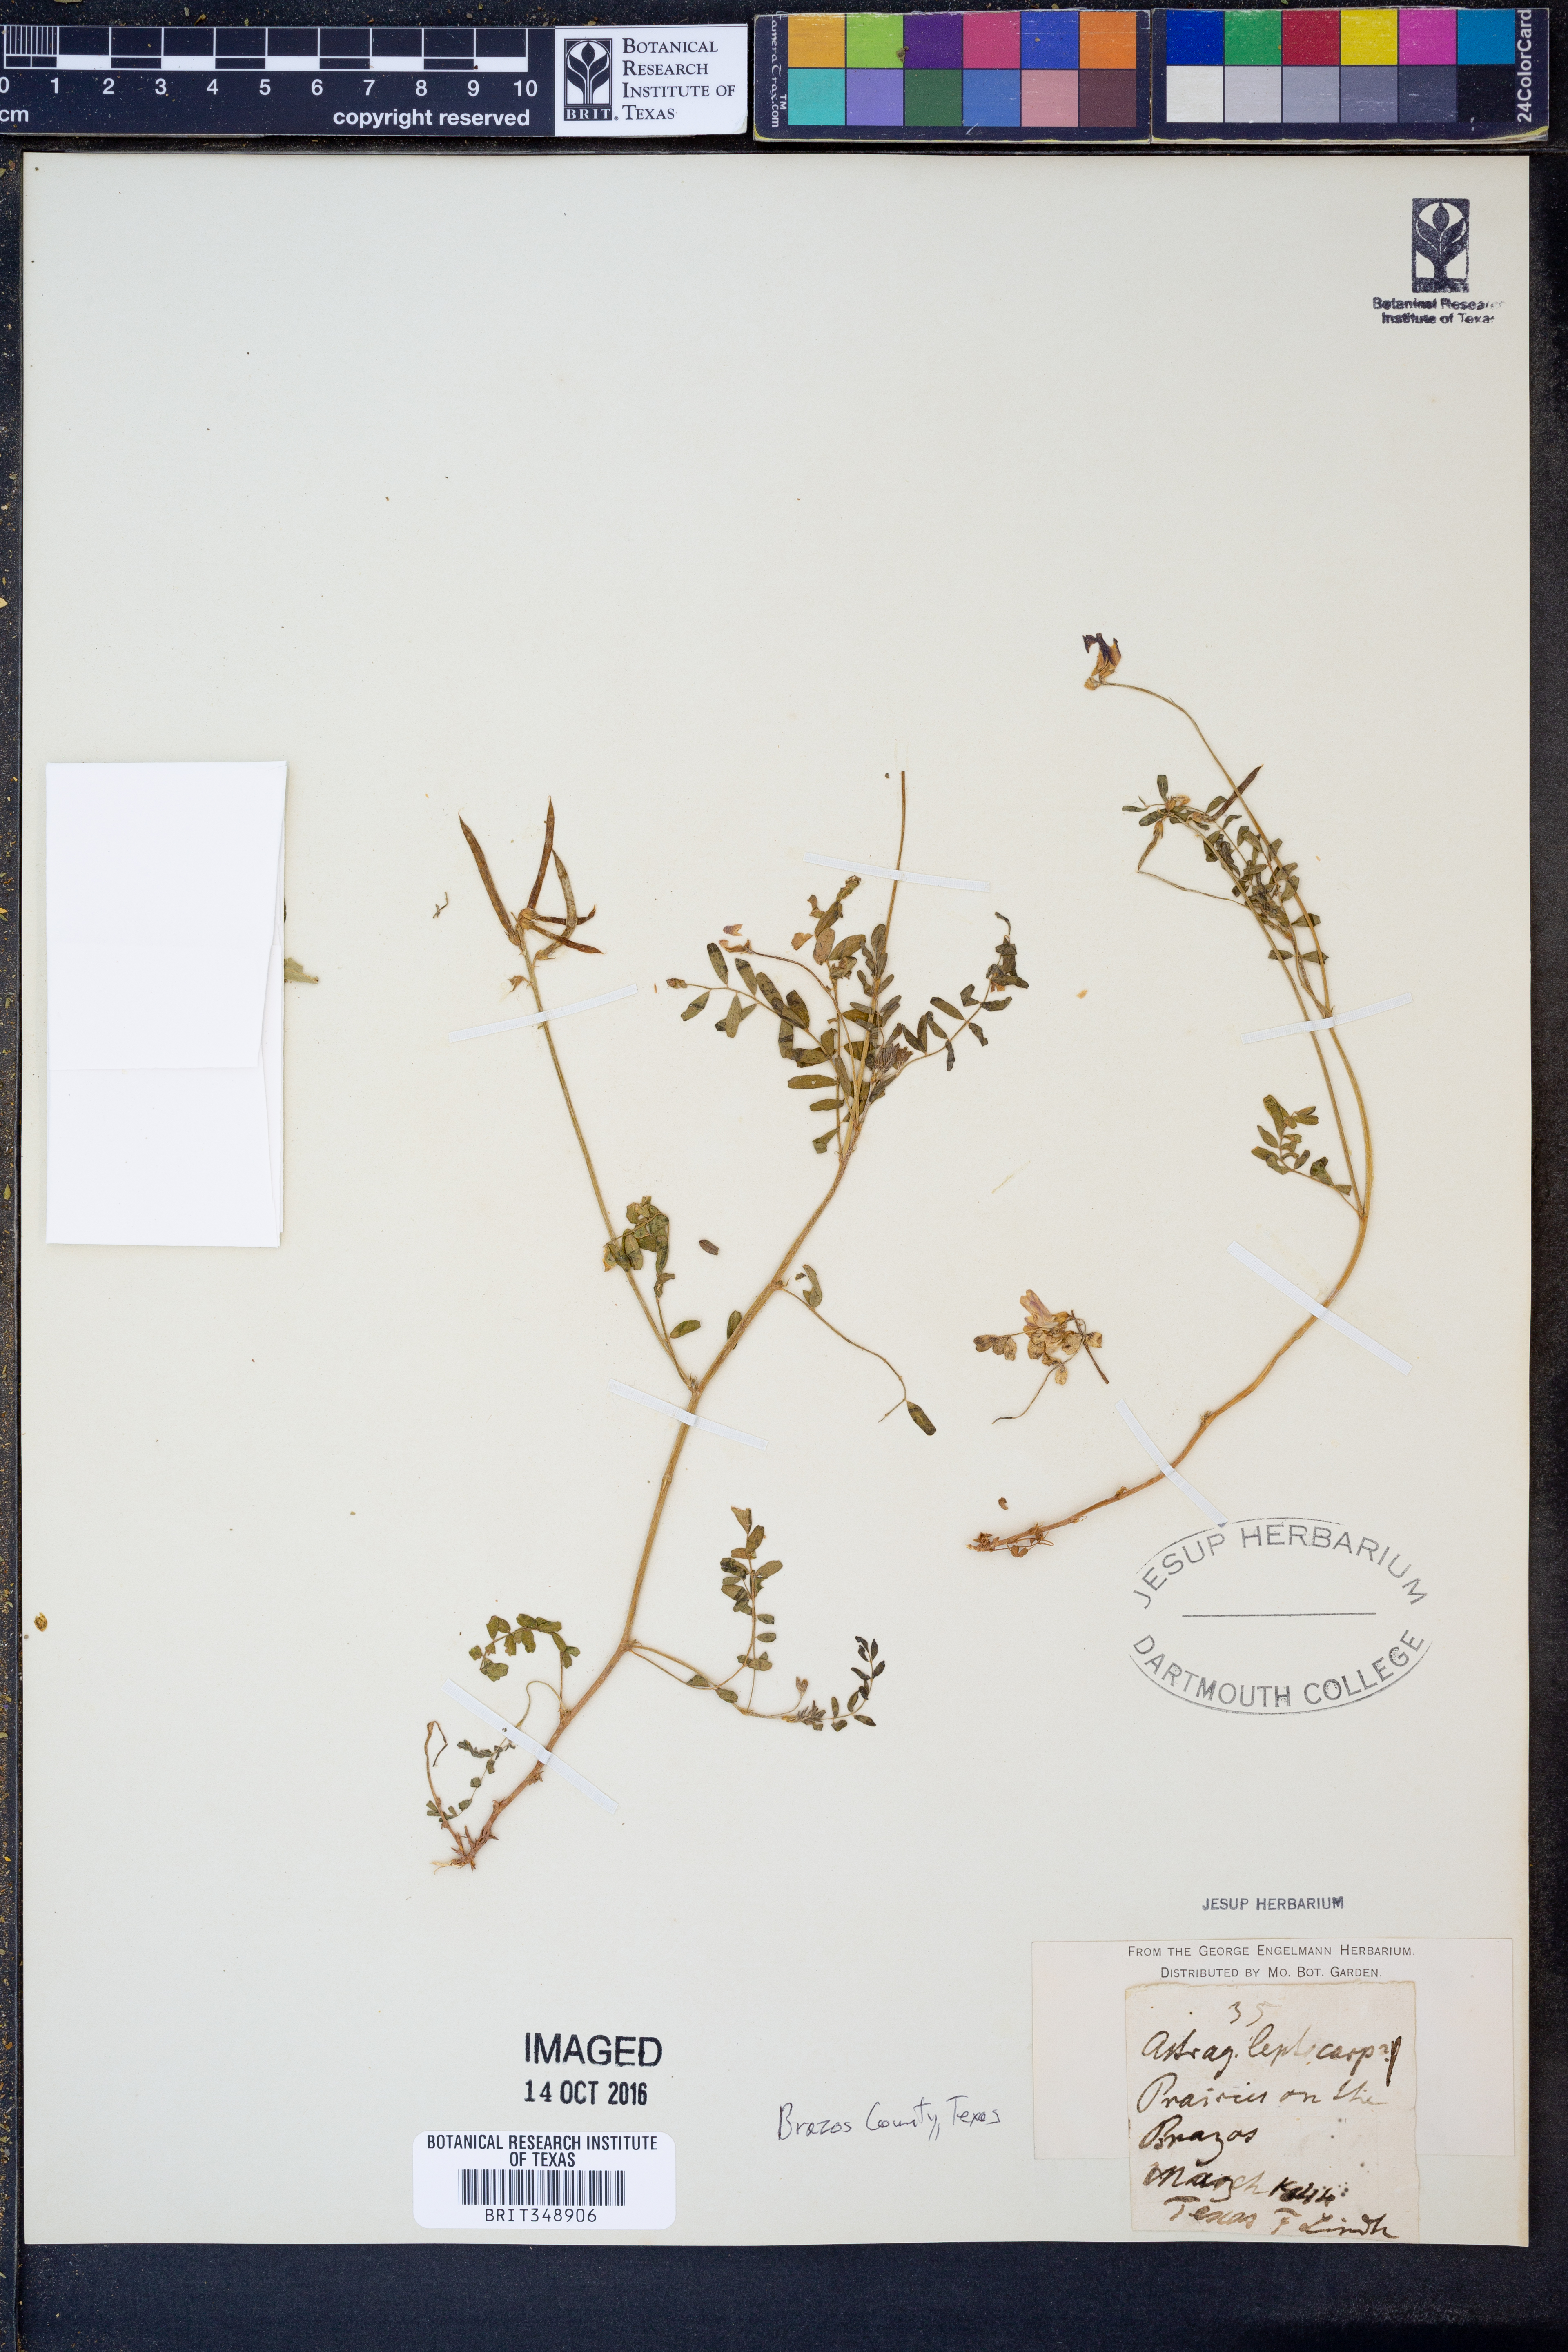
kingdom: Plantae
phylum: Tracheophyta
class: Magnoliopsida
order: Fabales
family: Fabaceae
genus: Astragalus
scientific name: Astragalus leptocarpus
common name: Bodkin milk-vetch
